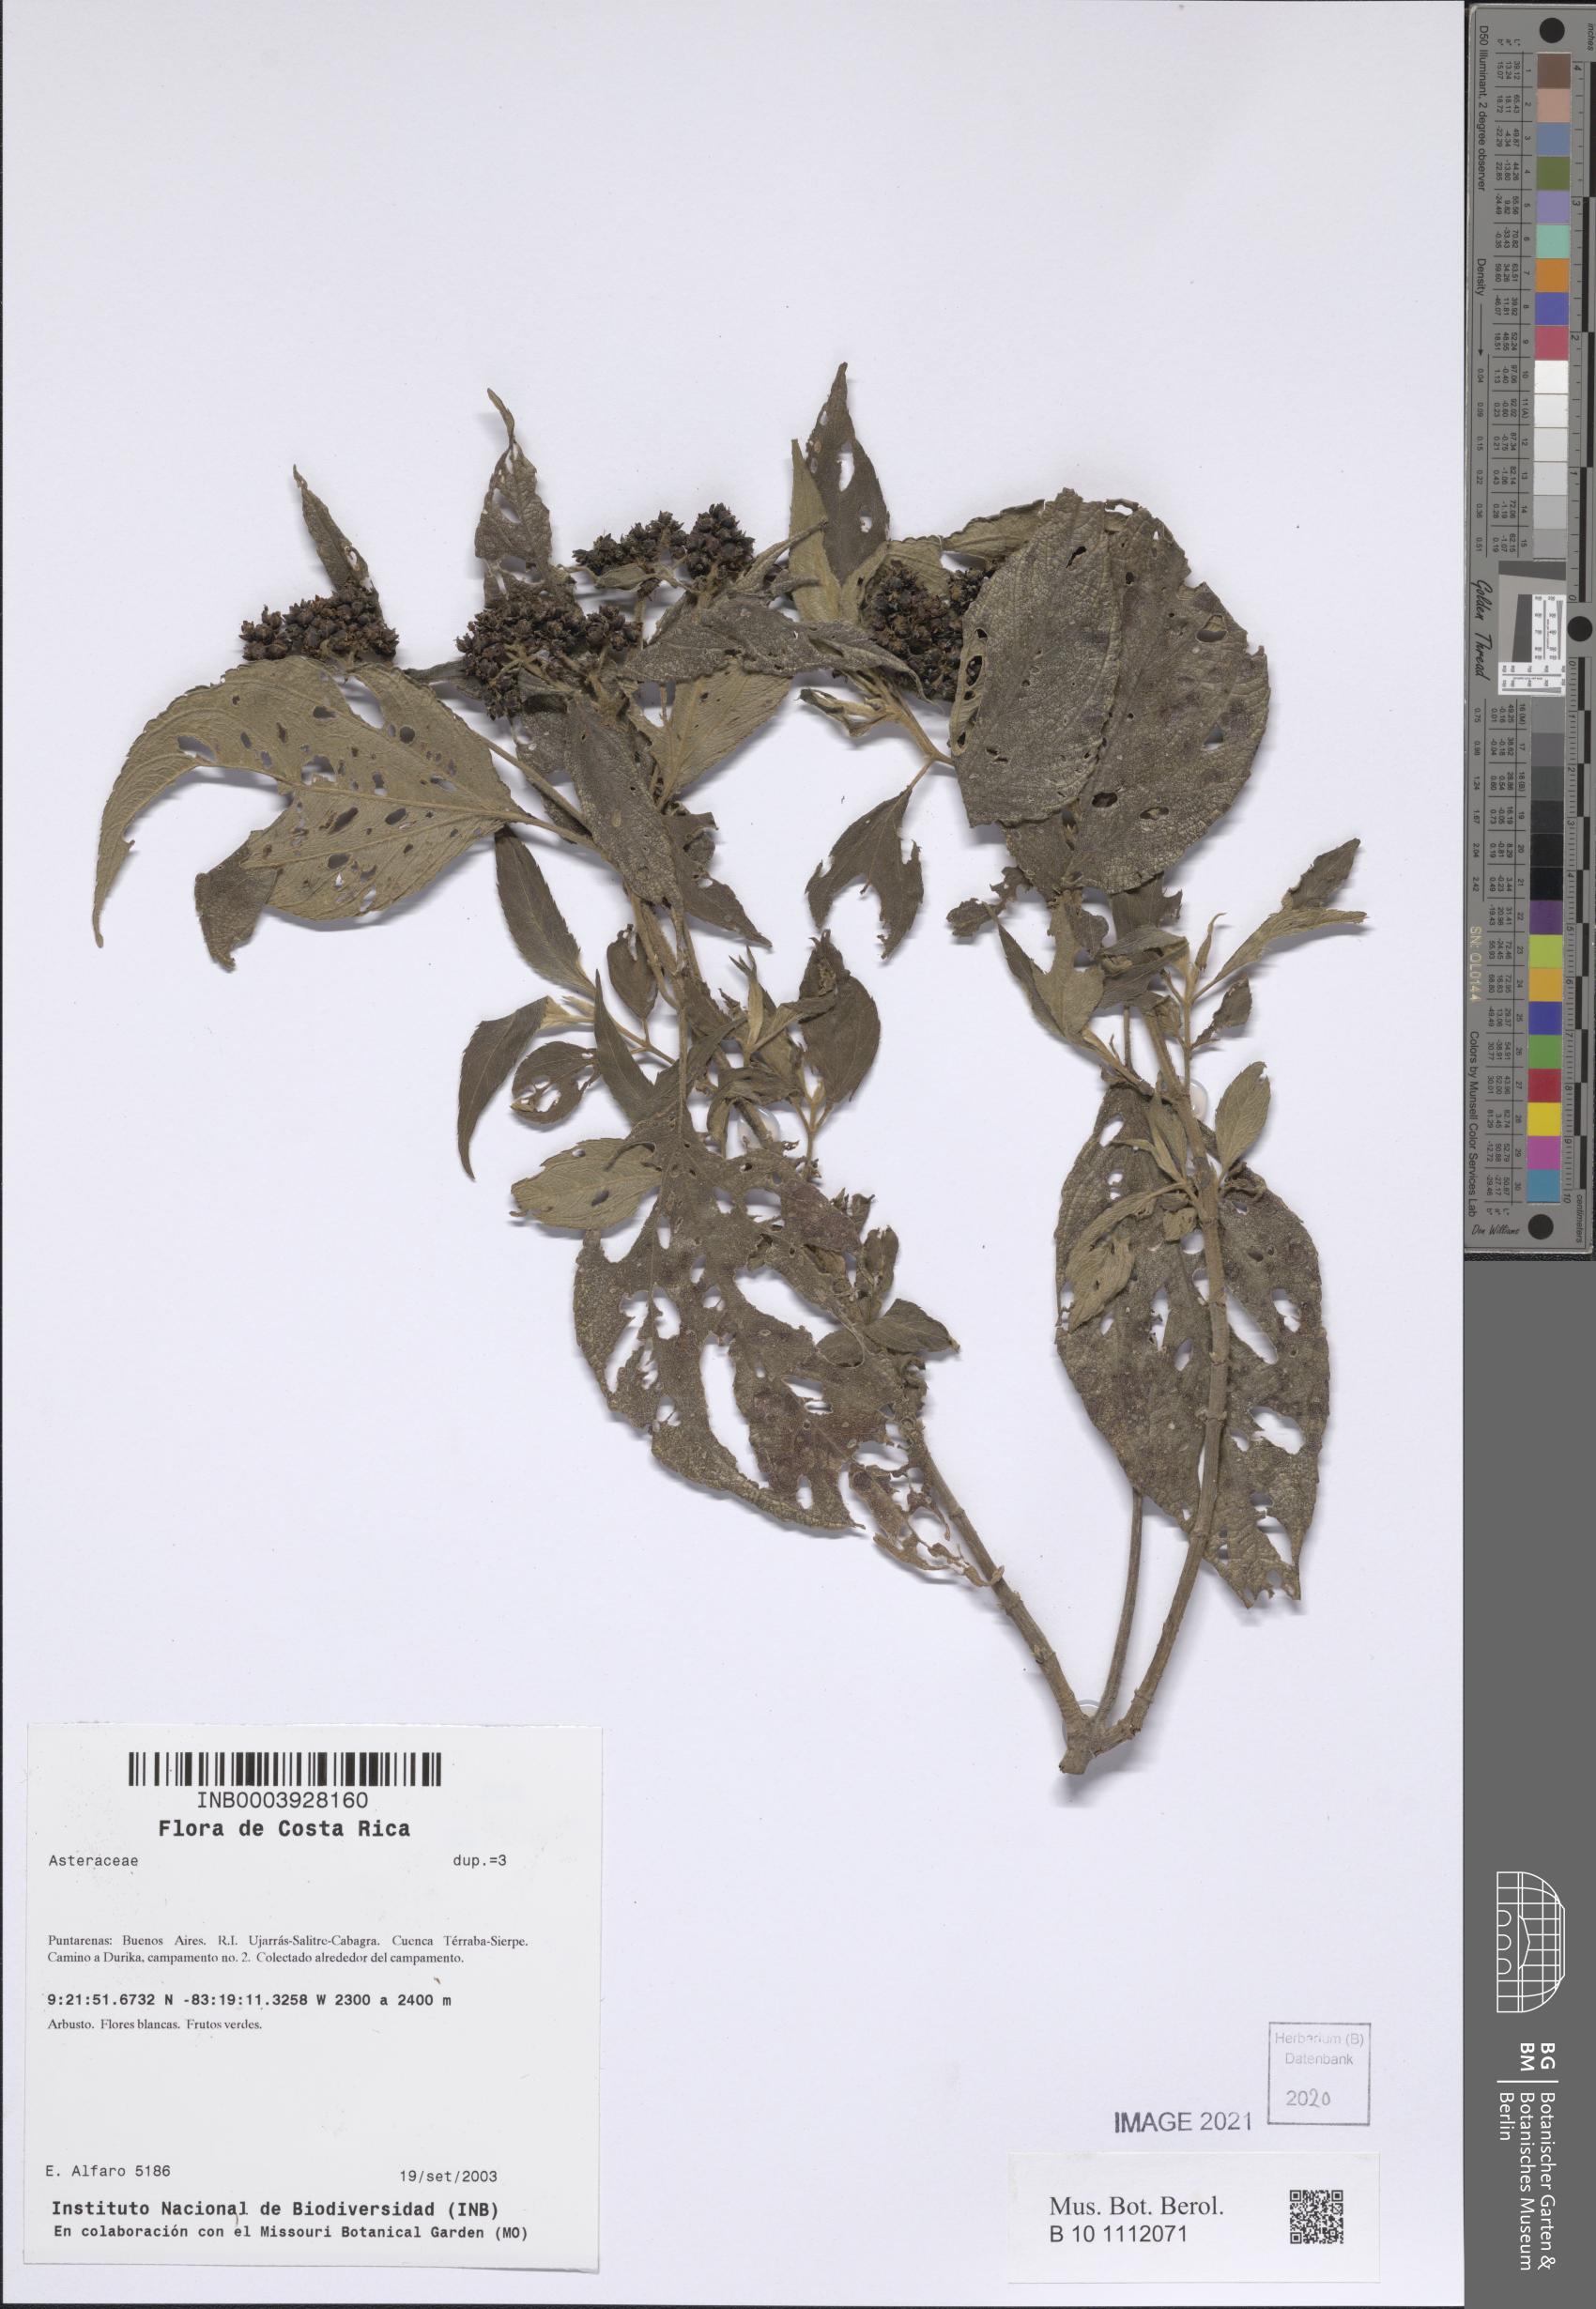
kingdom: Plantae
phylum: Tracheophyta
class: Magnoliopsida
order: Asterales
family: Asteraceae
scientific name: Asteraceae
